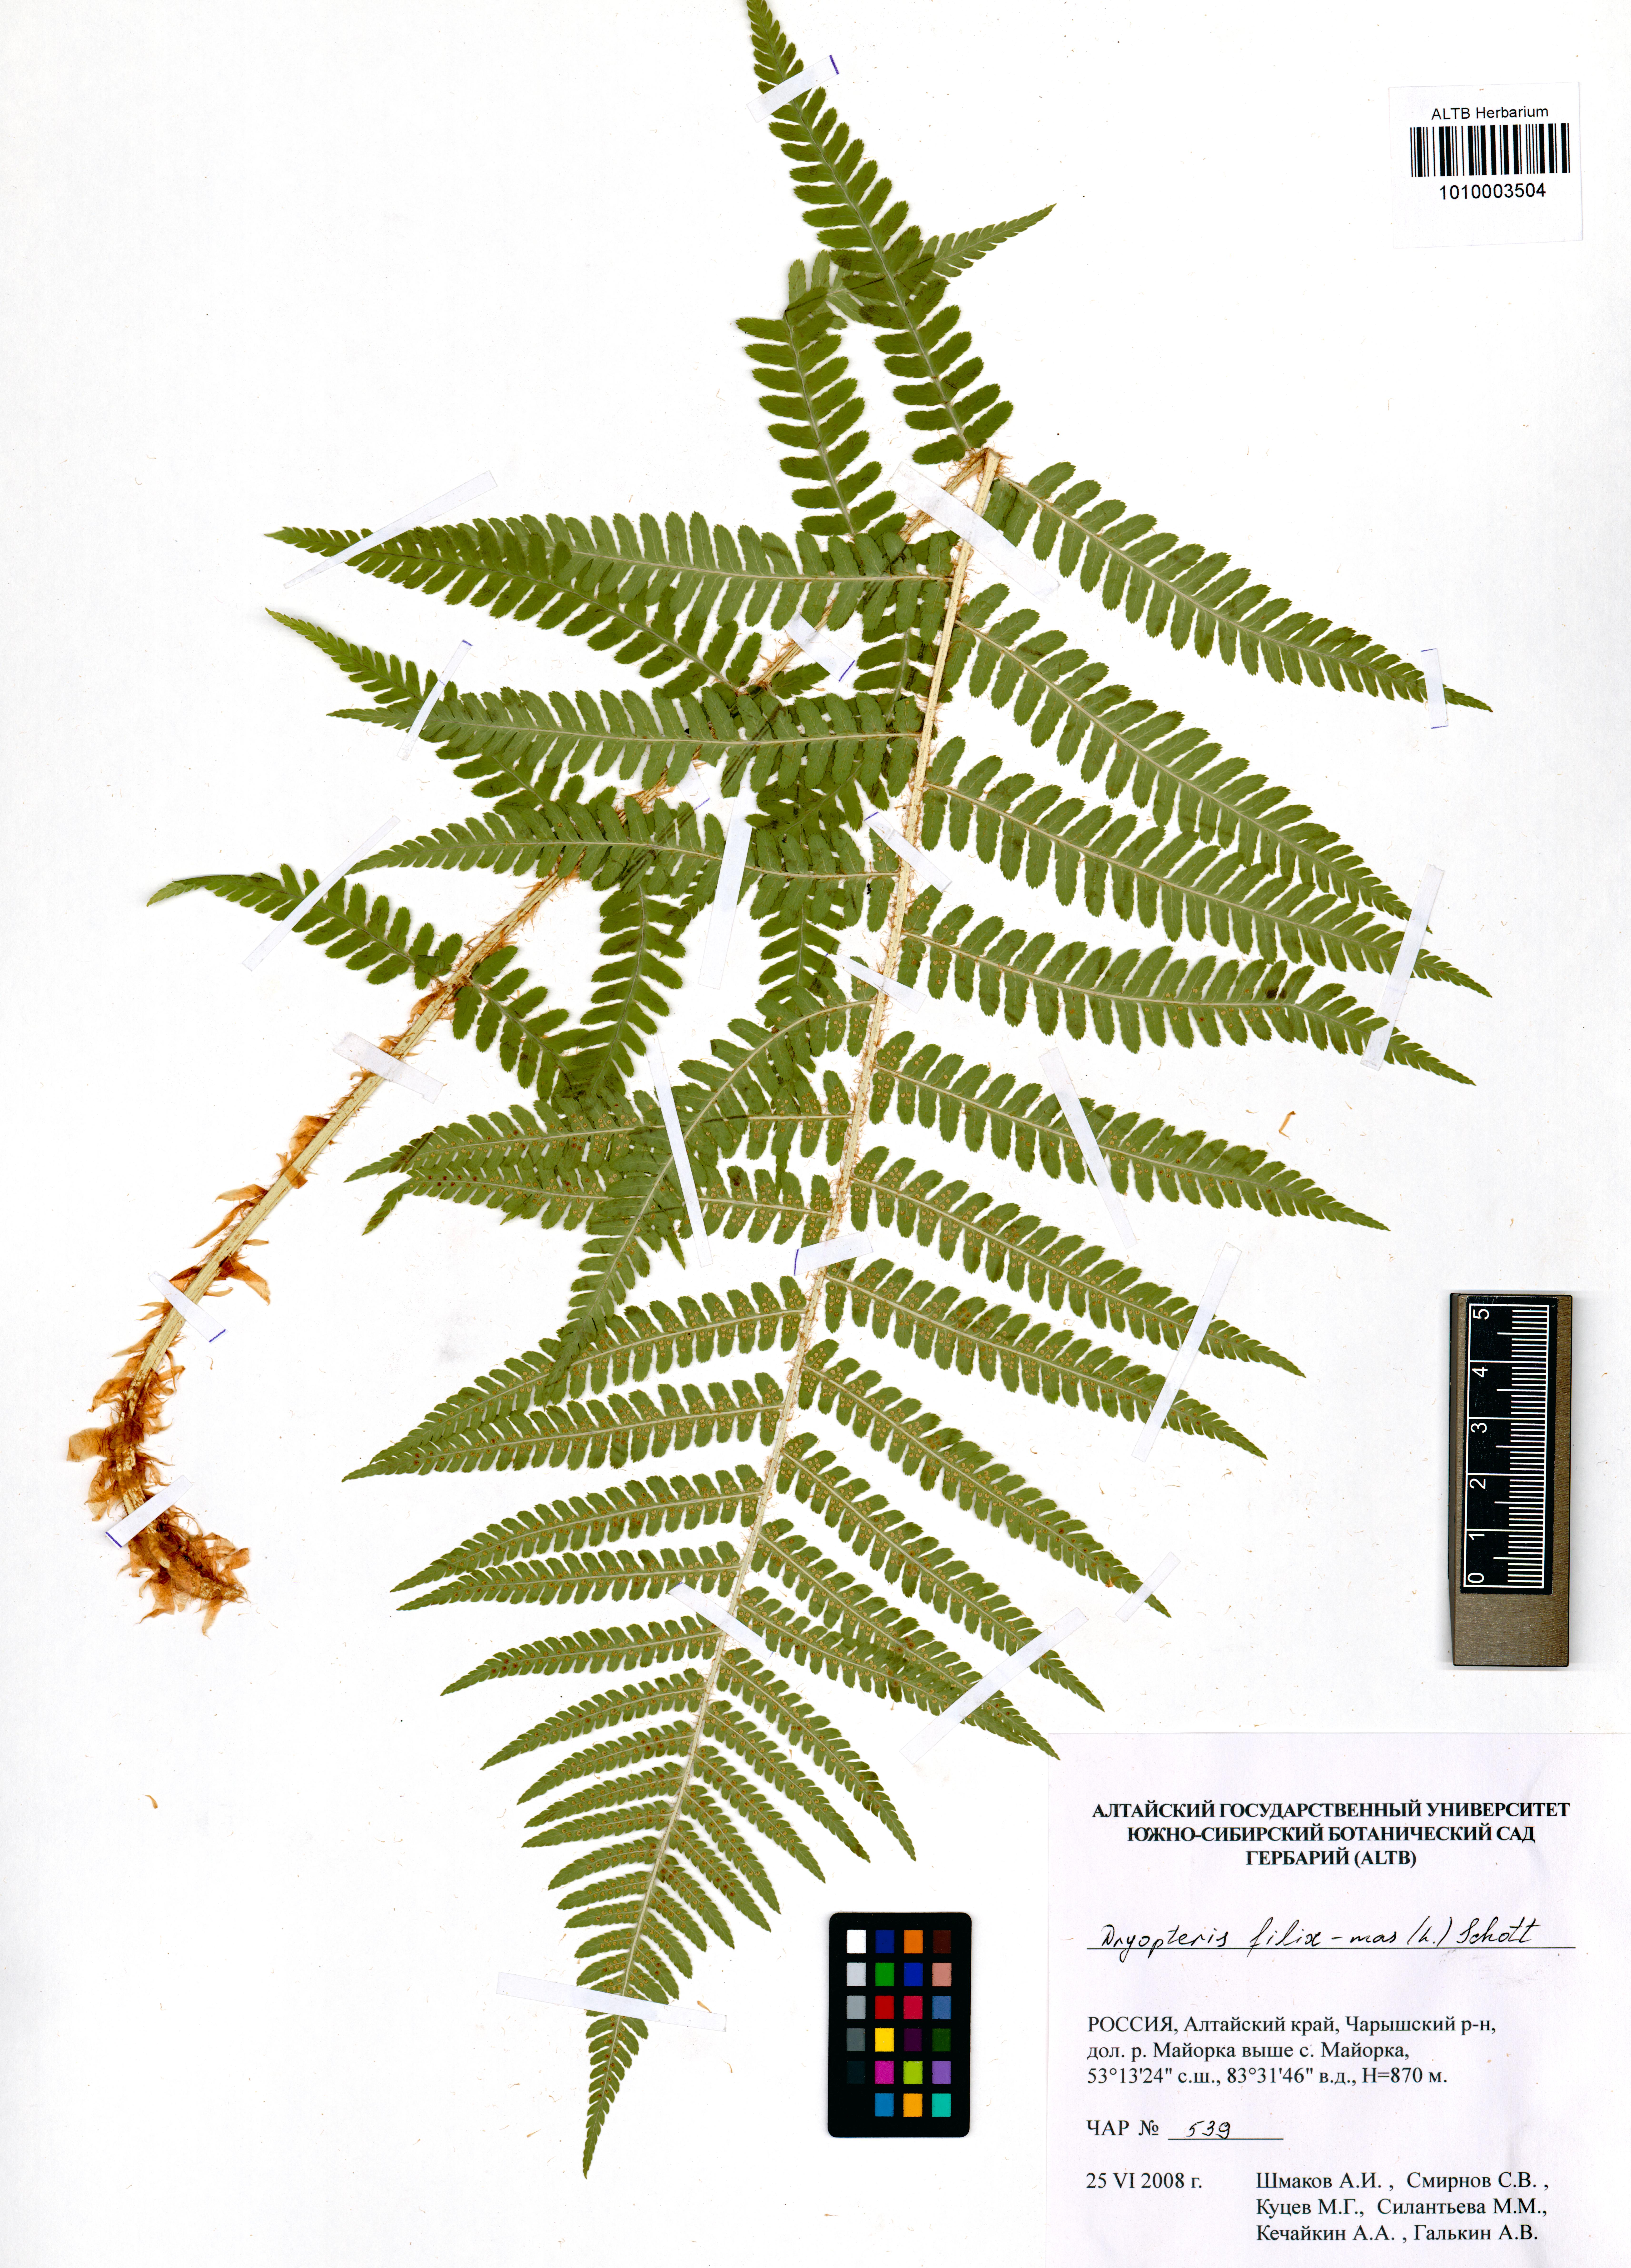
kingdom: Plantae
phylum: Tracheophyta
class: Polypodiopsida
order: Polypodiales
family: Dryopteridaceae
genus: Dryopteris
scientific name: Dryopteris filix-mas
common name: Male fern
